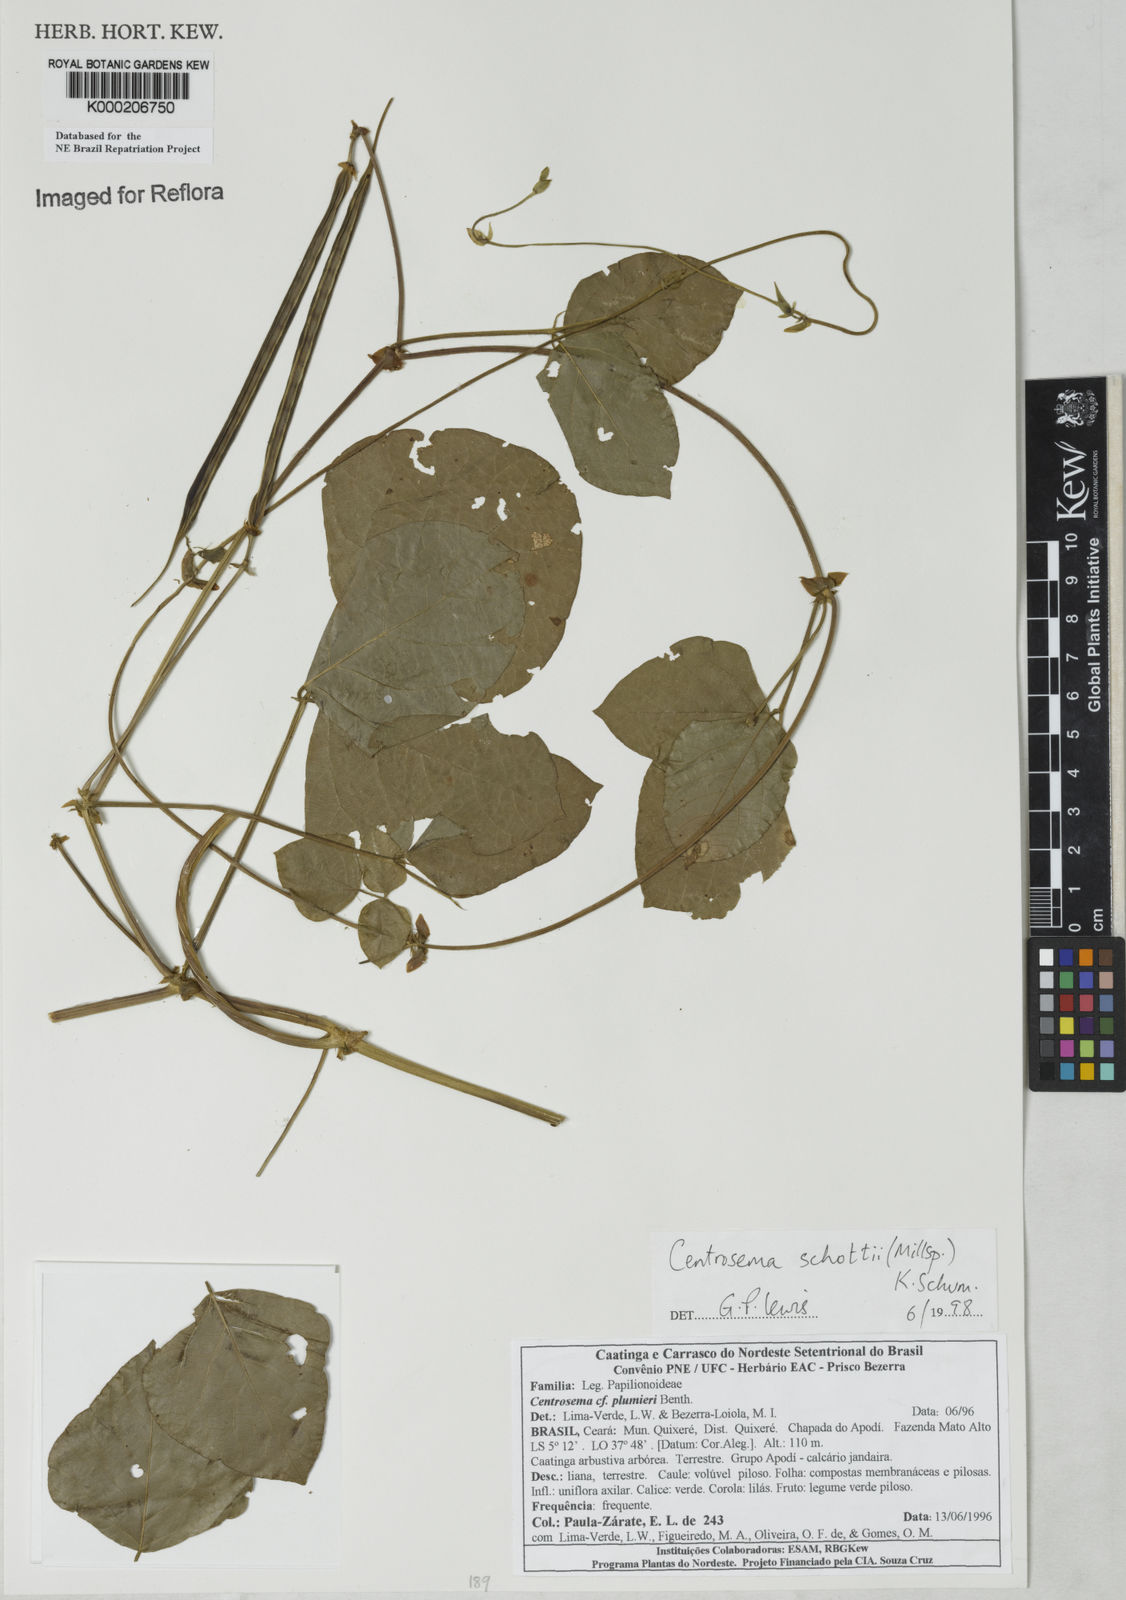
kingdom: Plantae
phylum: Tracheophyta
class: Magnoliopsida
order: Fabales
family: Fabaceae
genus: Centrosema
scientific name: Centrosema schottii
